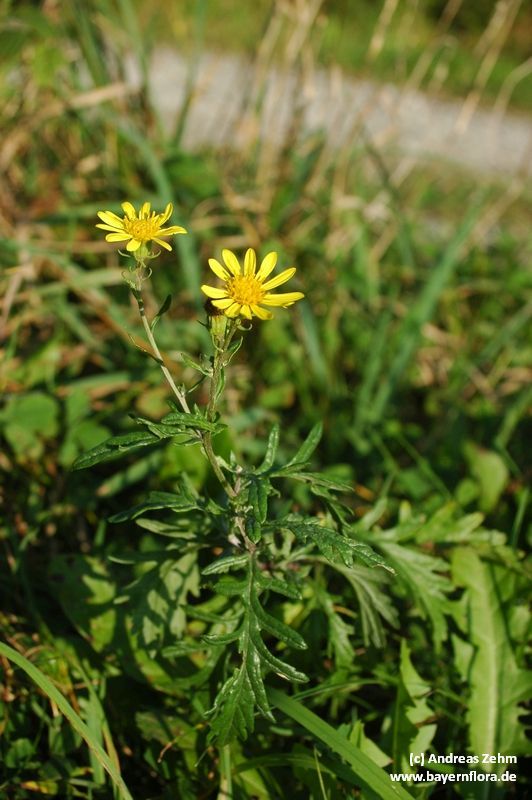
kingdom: Plantae
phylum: Tracheophyta
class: Magnoliopsida
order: Asterales
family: Asteraceae
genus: Jacobaea
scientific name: Jacobaea erucifolia
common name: Hoary ragwort
